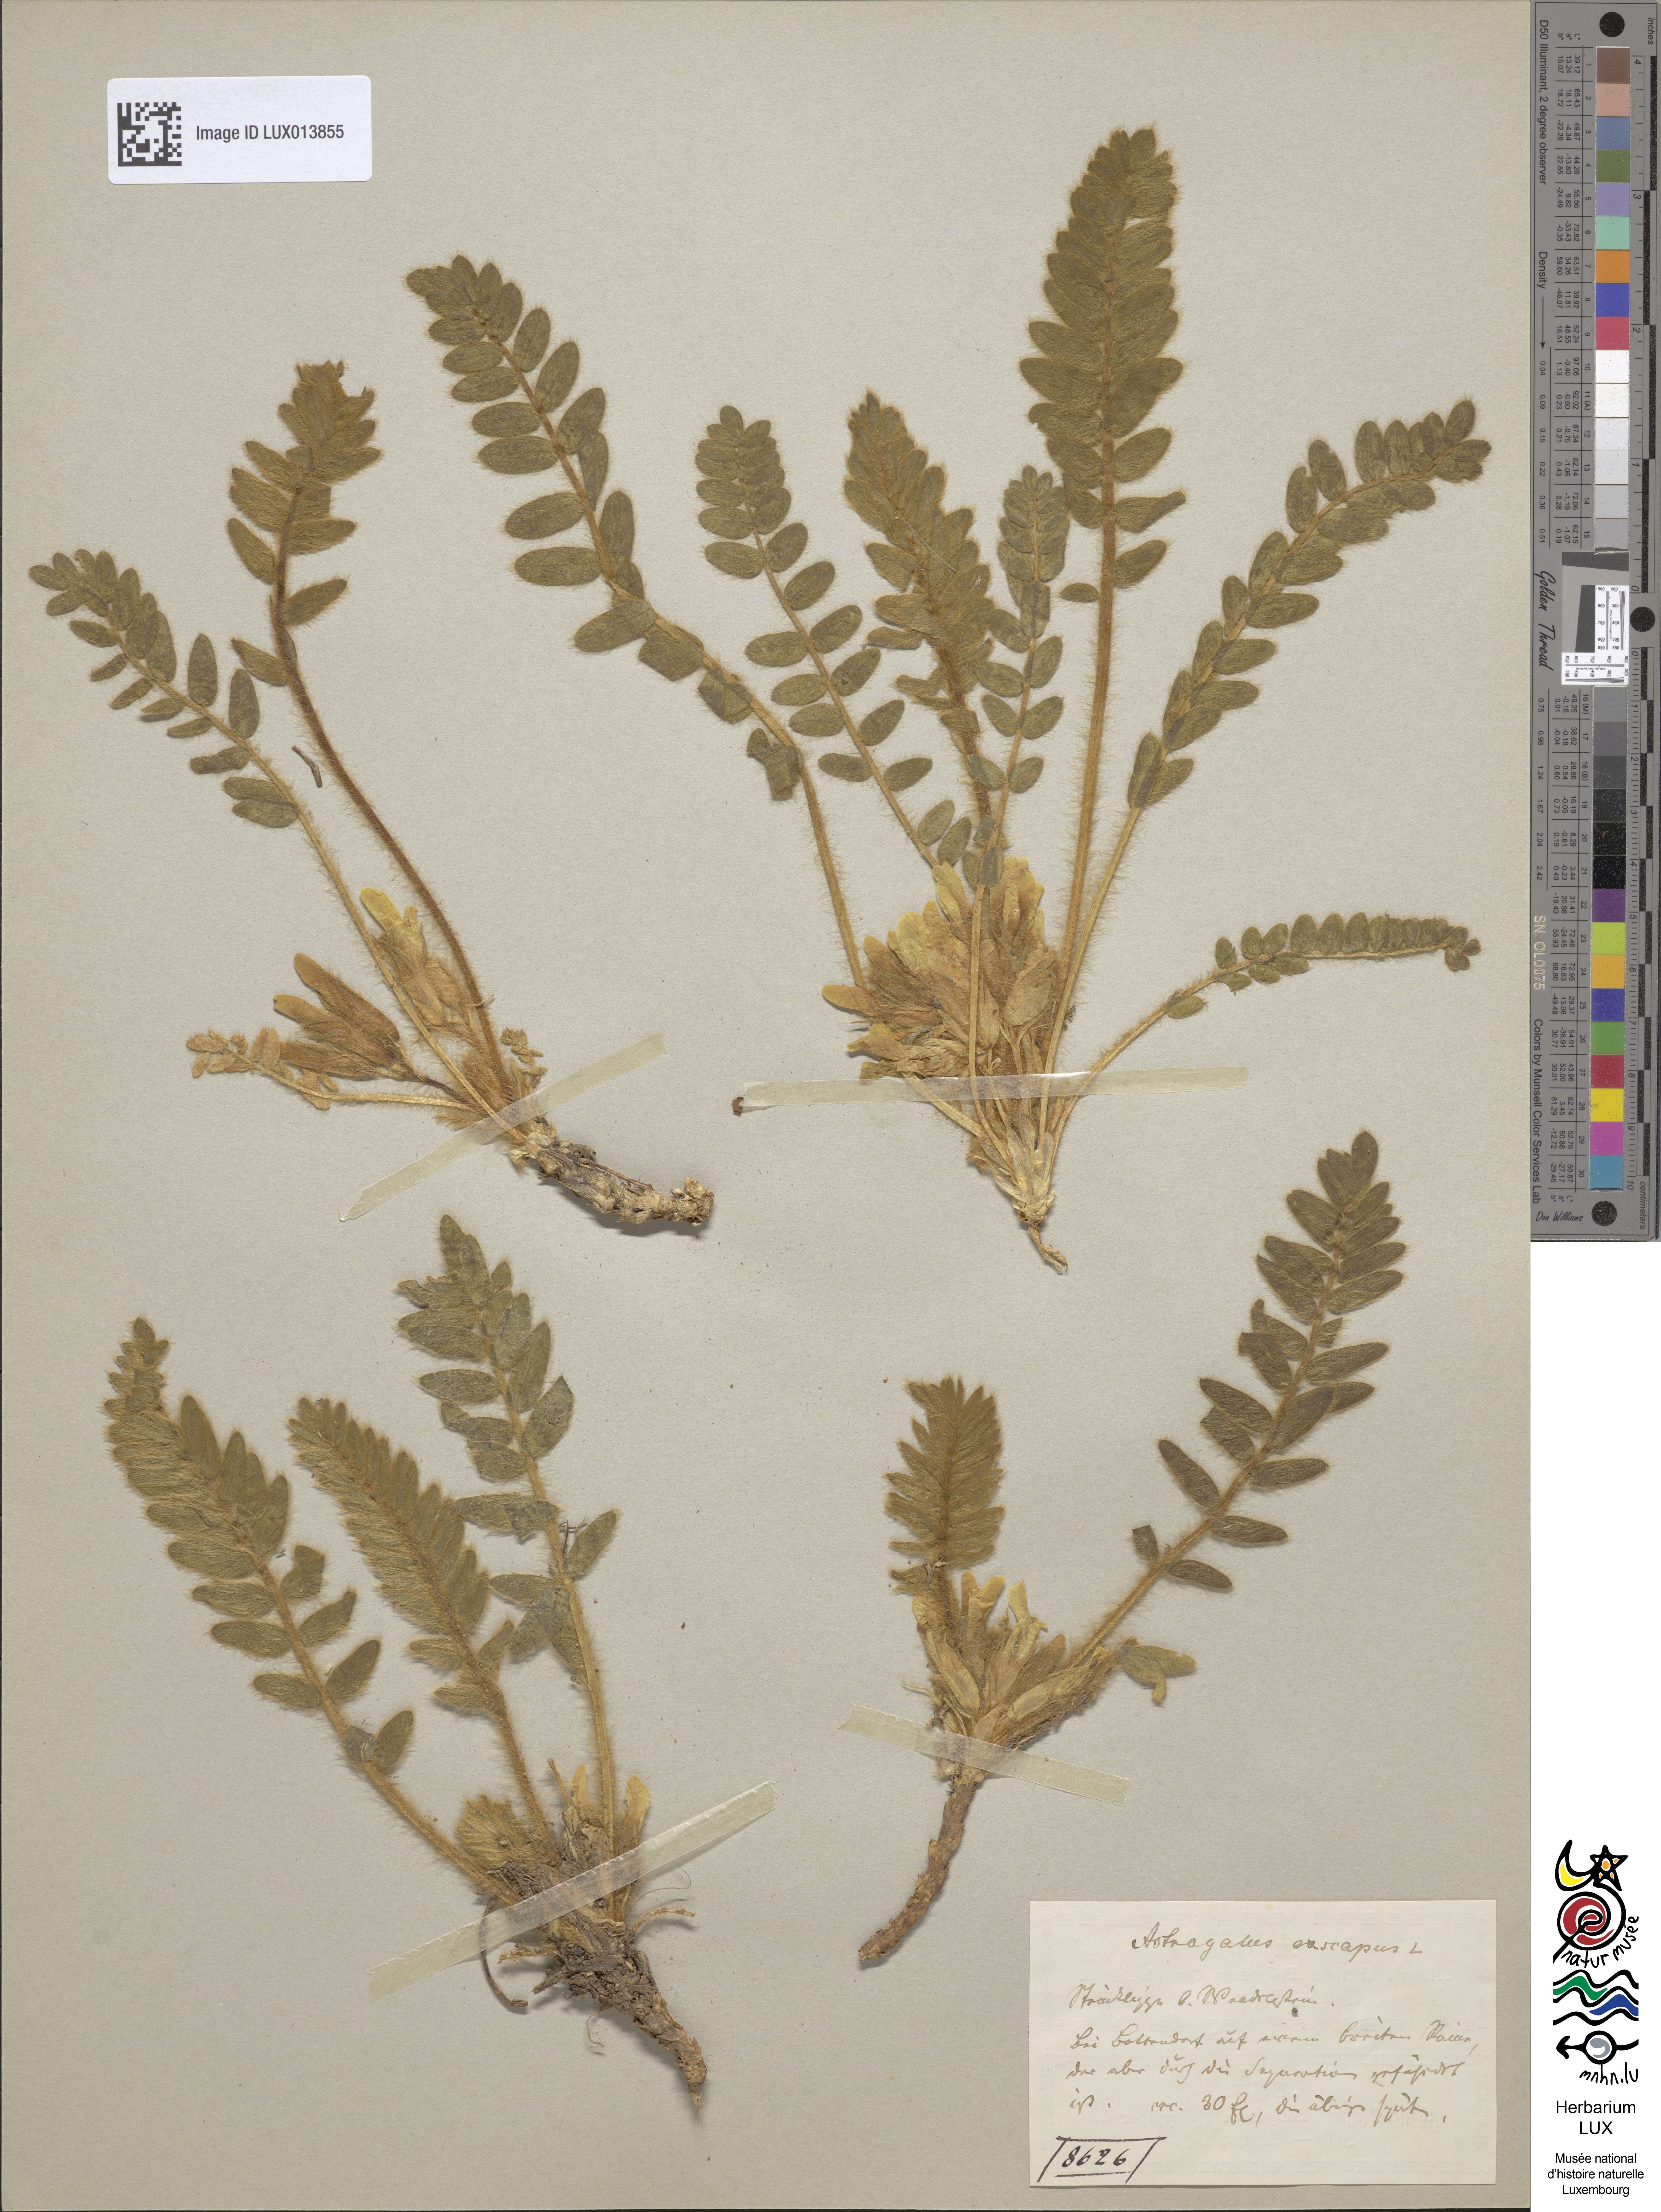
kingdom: Plantae
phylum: Tracheophyta
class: Magnoliopsida
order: Fabales
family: Fabaceae
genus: Astragalus
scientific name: Astragalus exscapus
